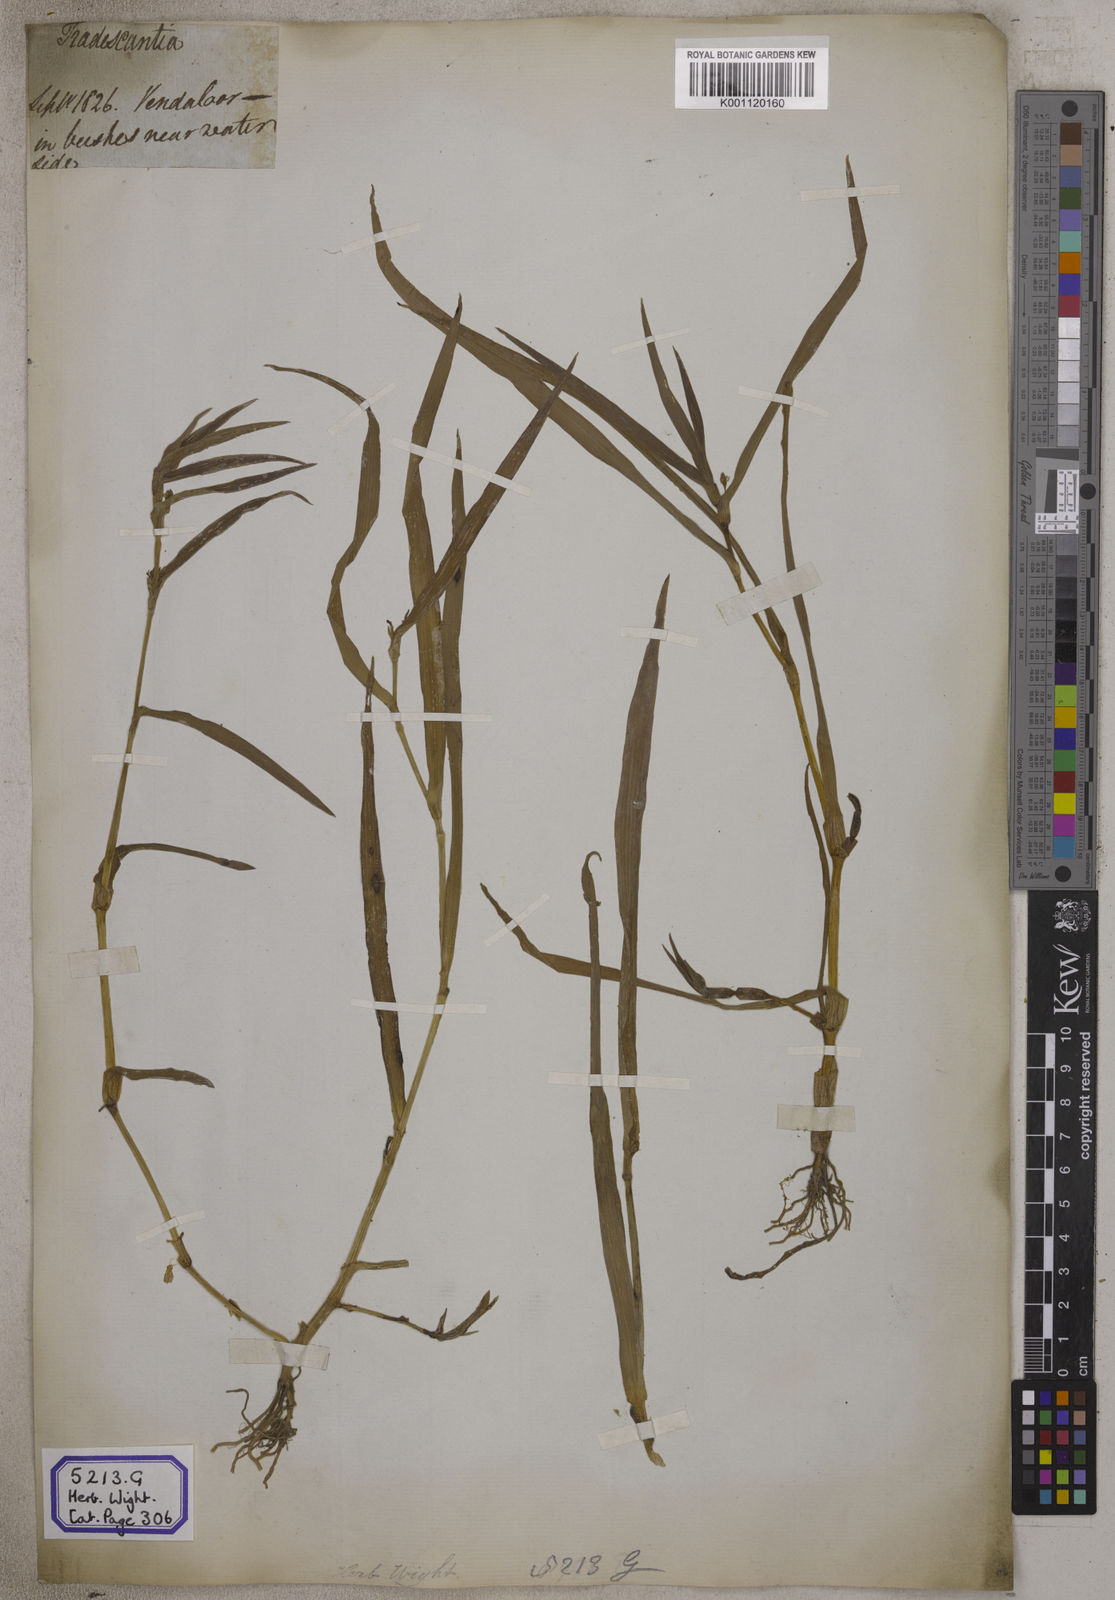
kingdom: Plantae
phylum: Tracheophyta
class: Liliopsida
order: Commelinales
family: Commelinaceae
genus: Aneilema
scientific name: Aneilema
